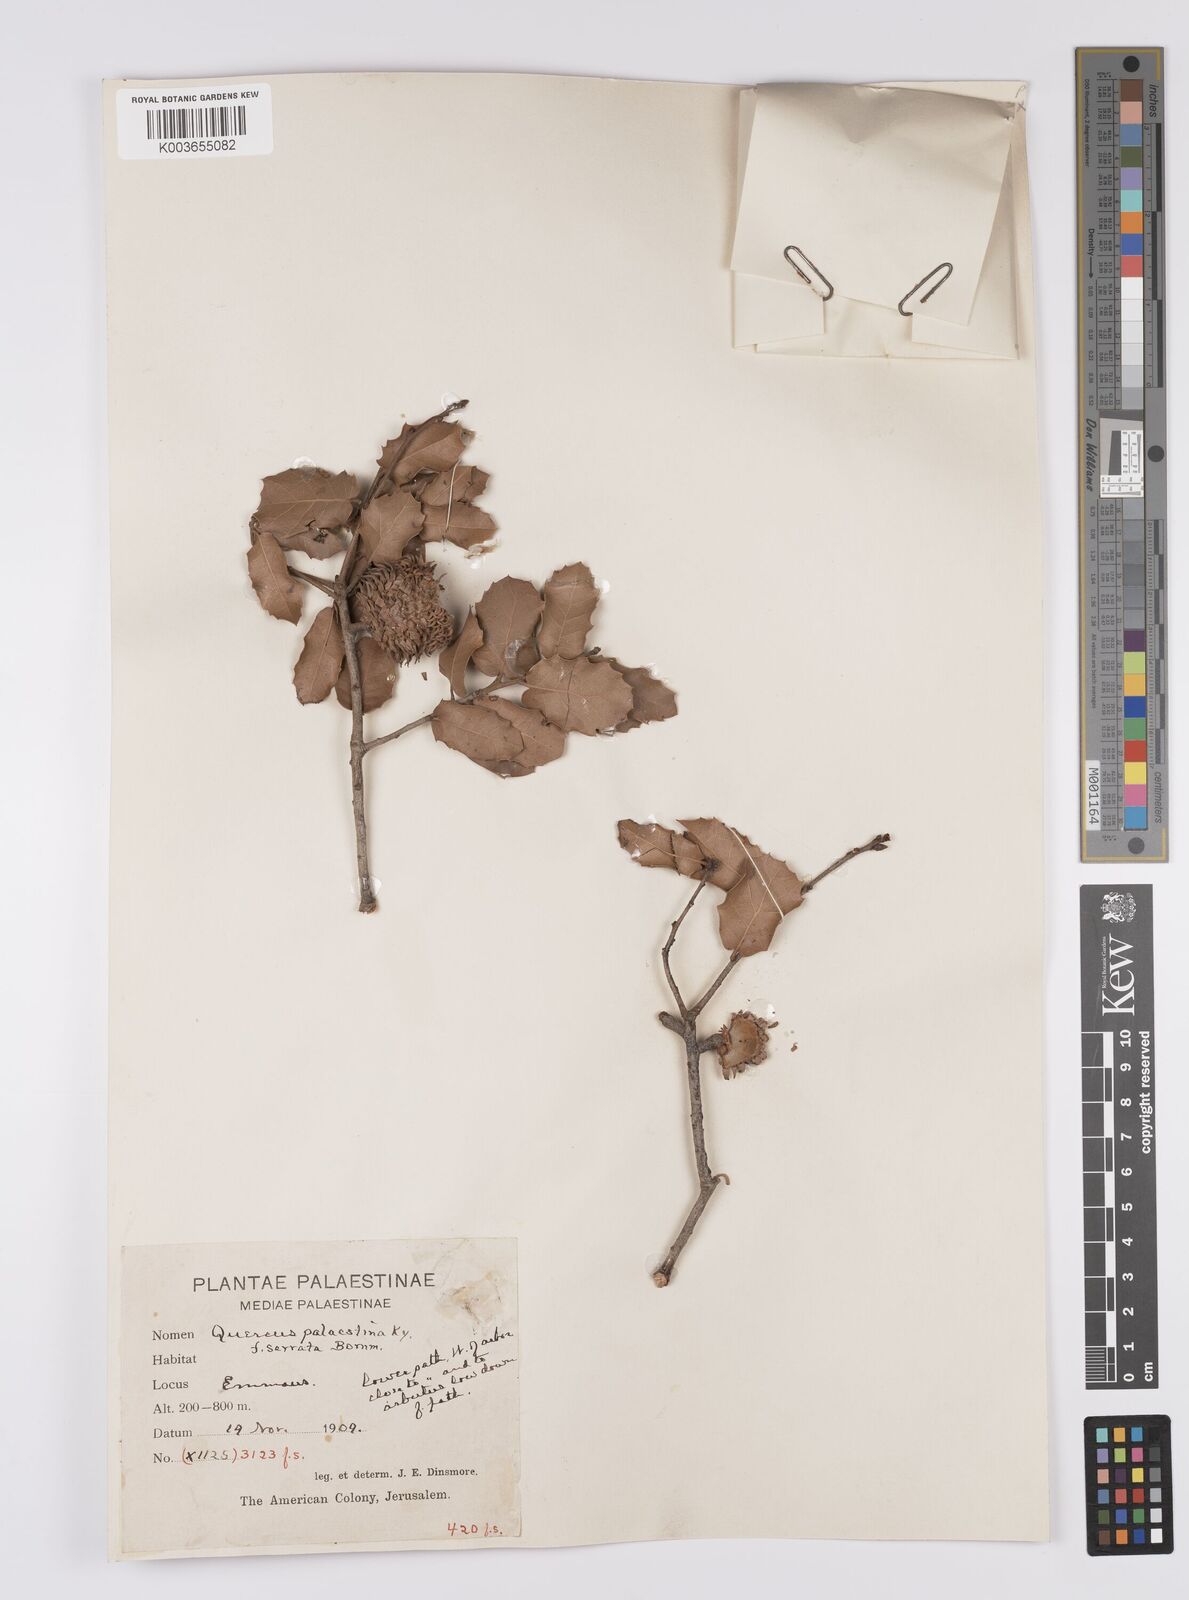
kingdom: Plantae
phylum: Tracheophyta
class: Magnoliopsida
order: Fagales
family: Fagaceae
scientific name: Fagaceae
